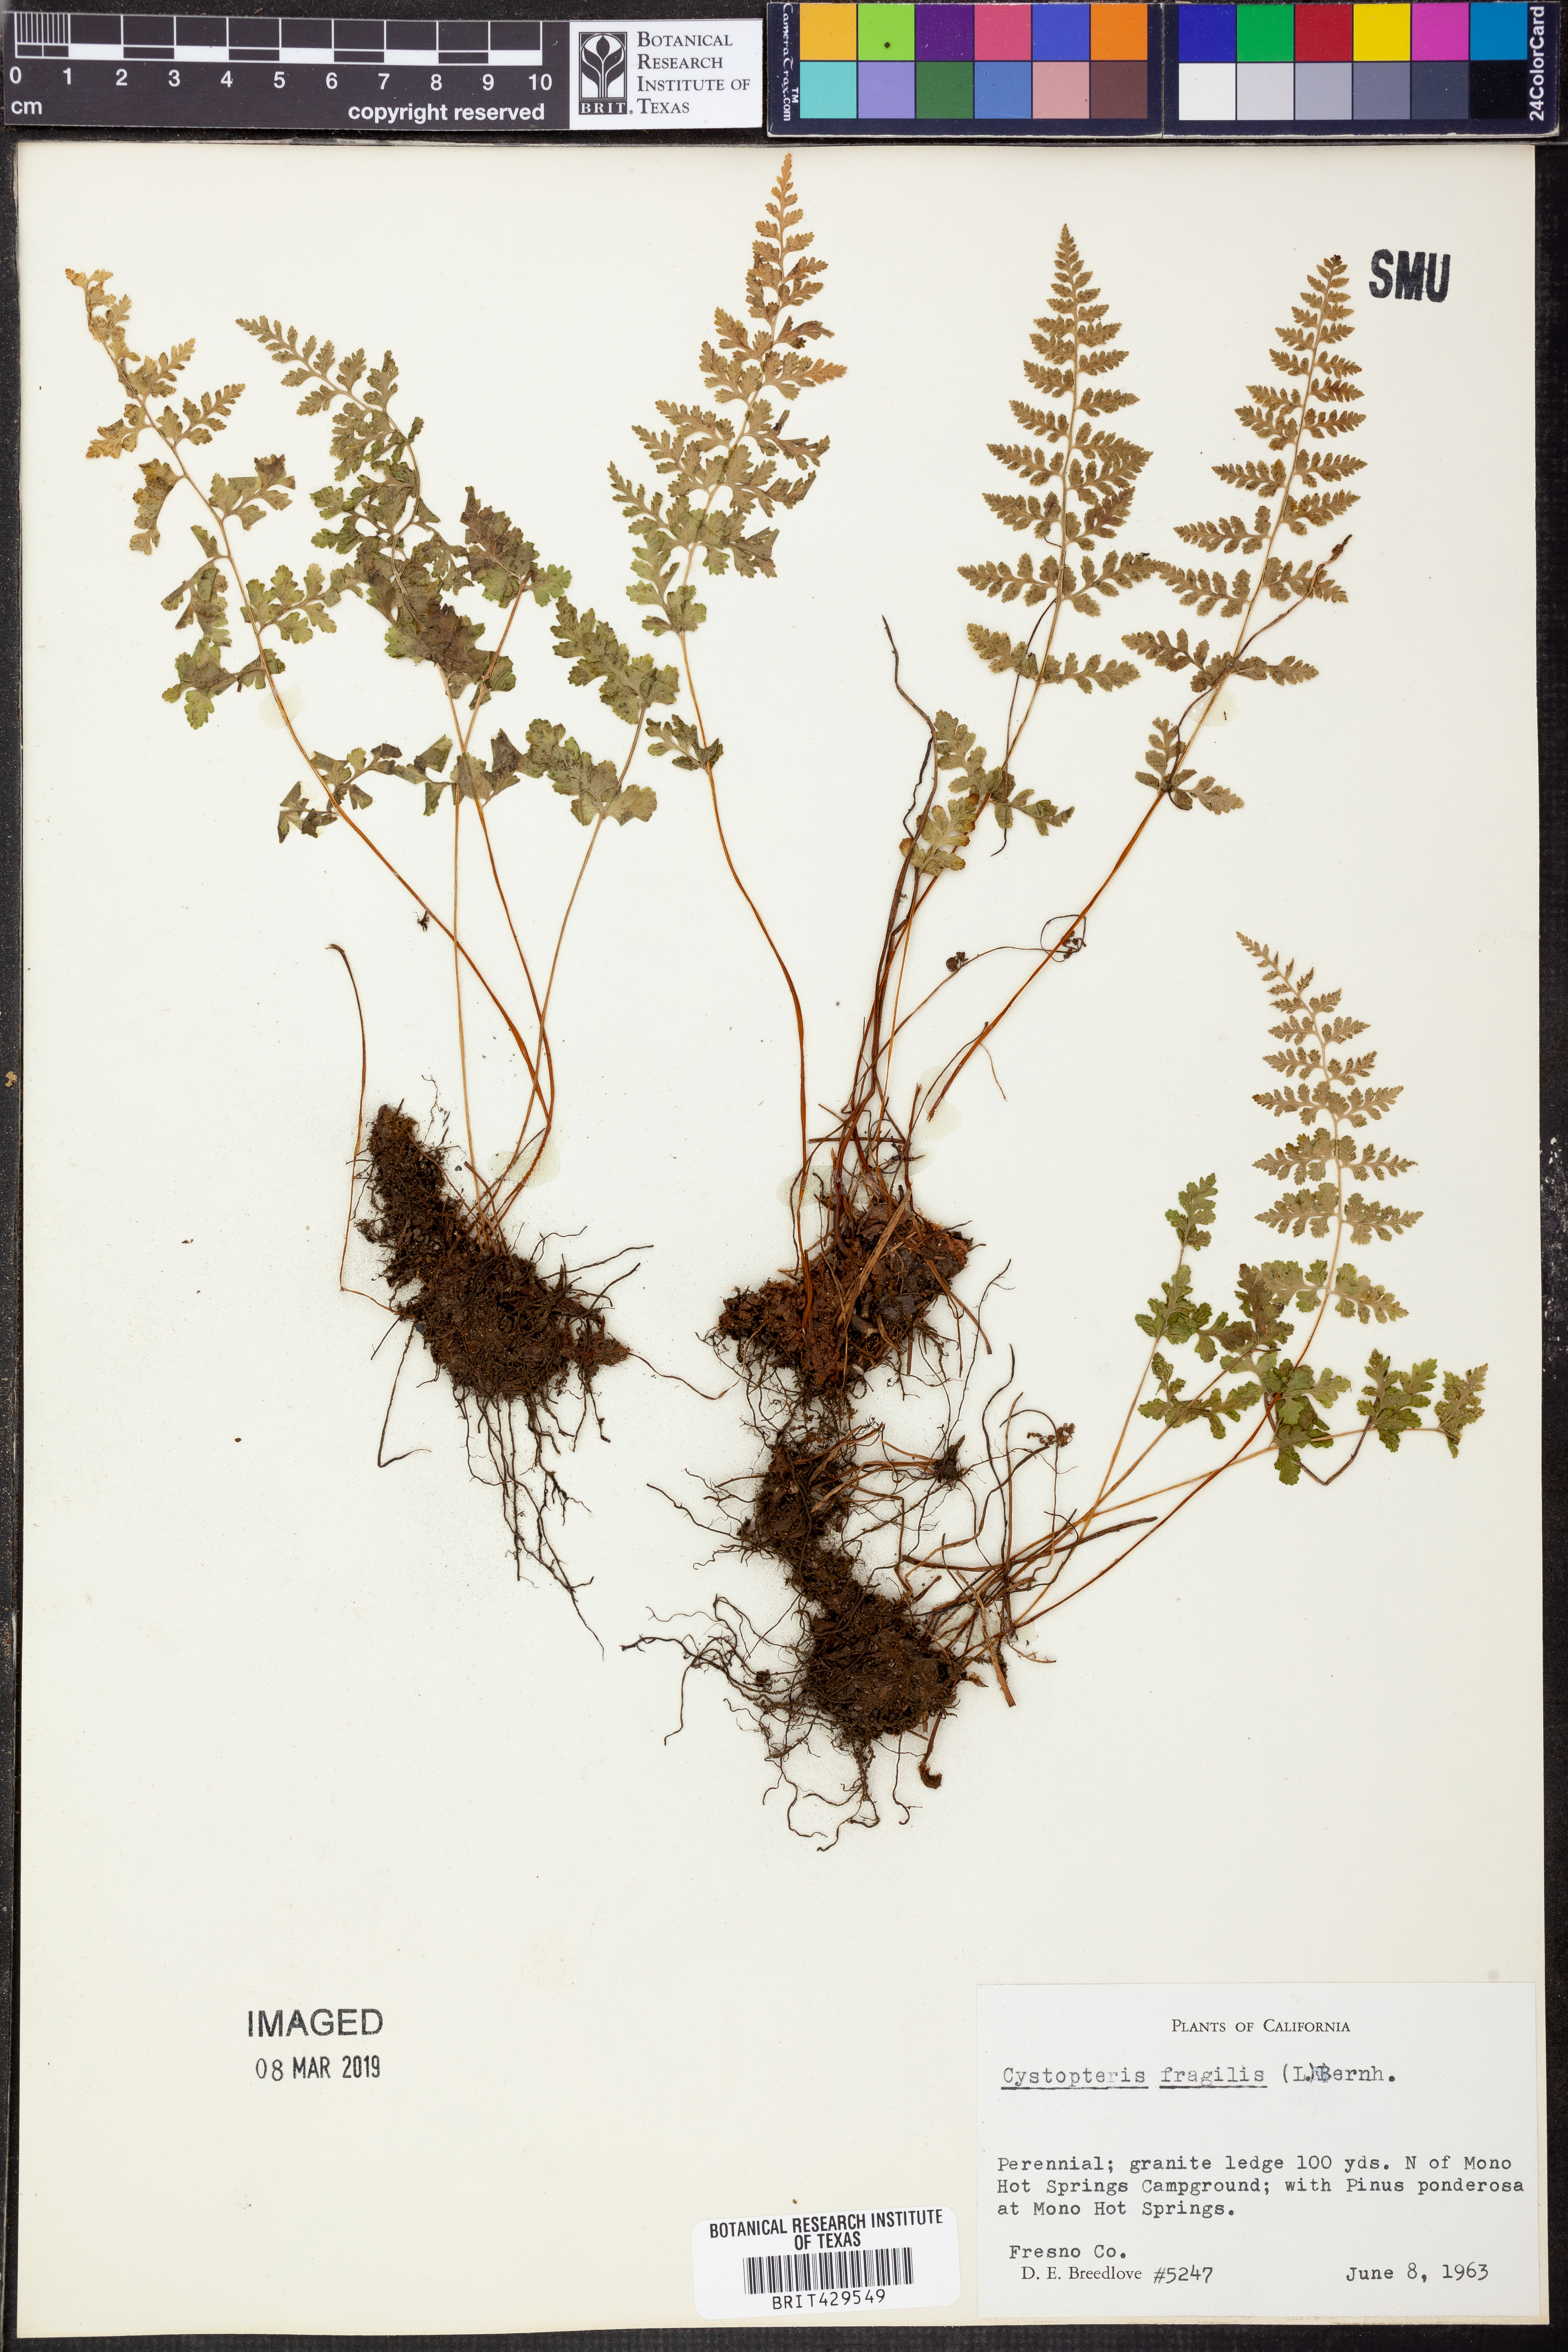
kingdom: Plantae
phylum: Tracheophyta
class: Polypodiopsida
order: Polypodiales
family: Cystopteridaceae
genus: Cystopteris
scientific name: Cystopteris fragilis
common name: Brittle bladder fern
